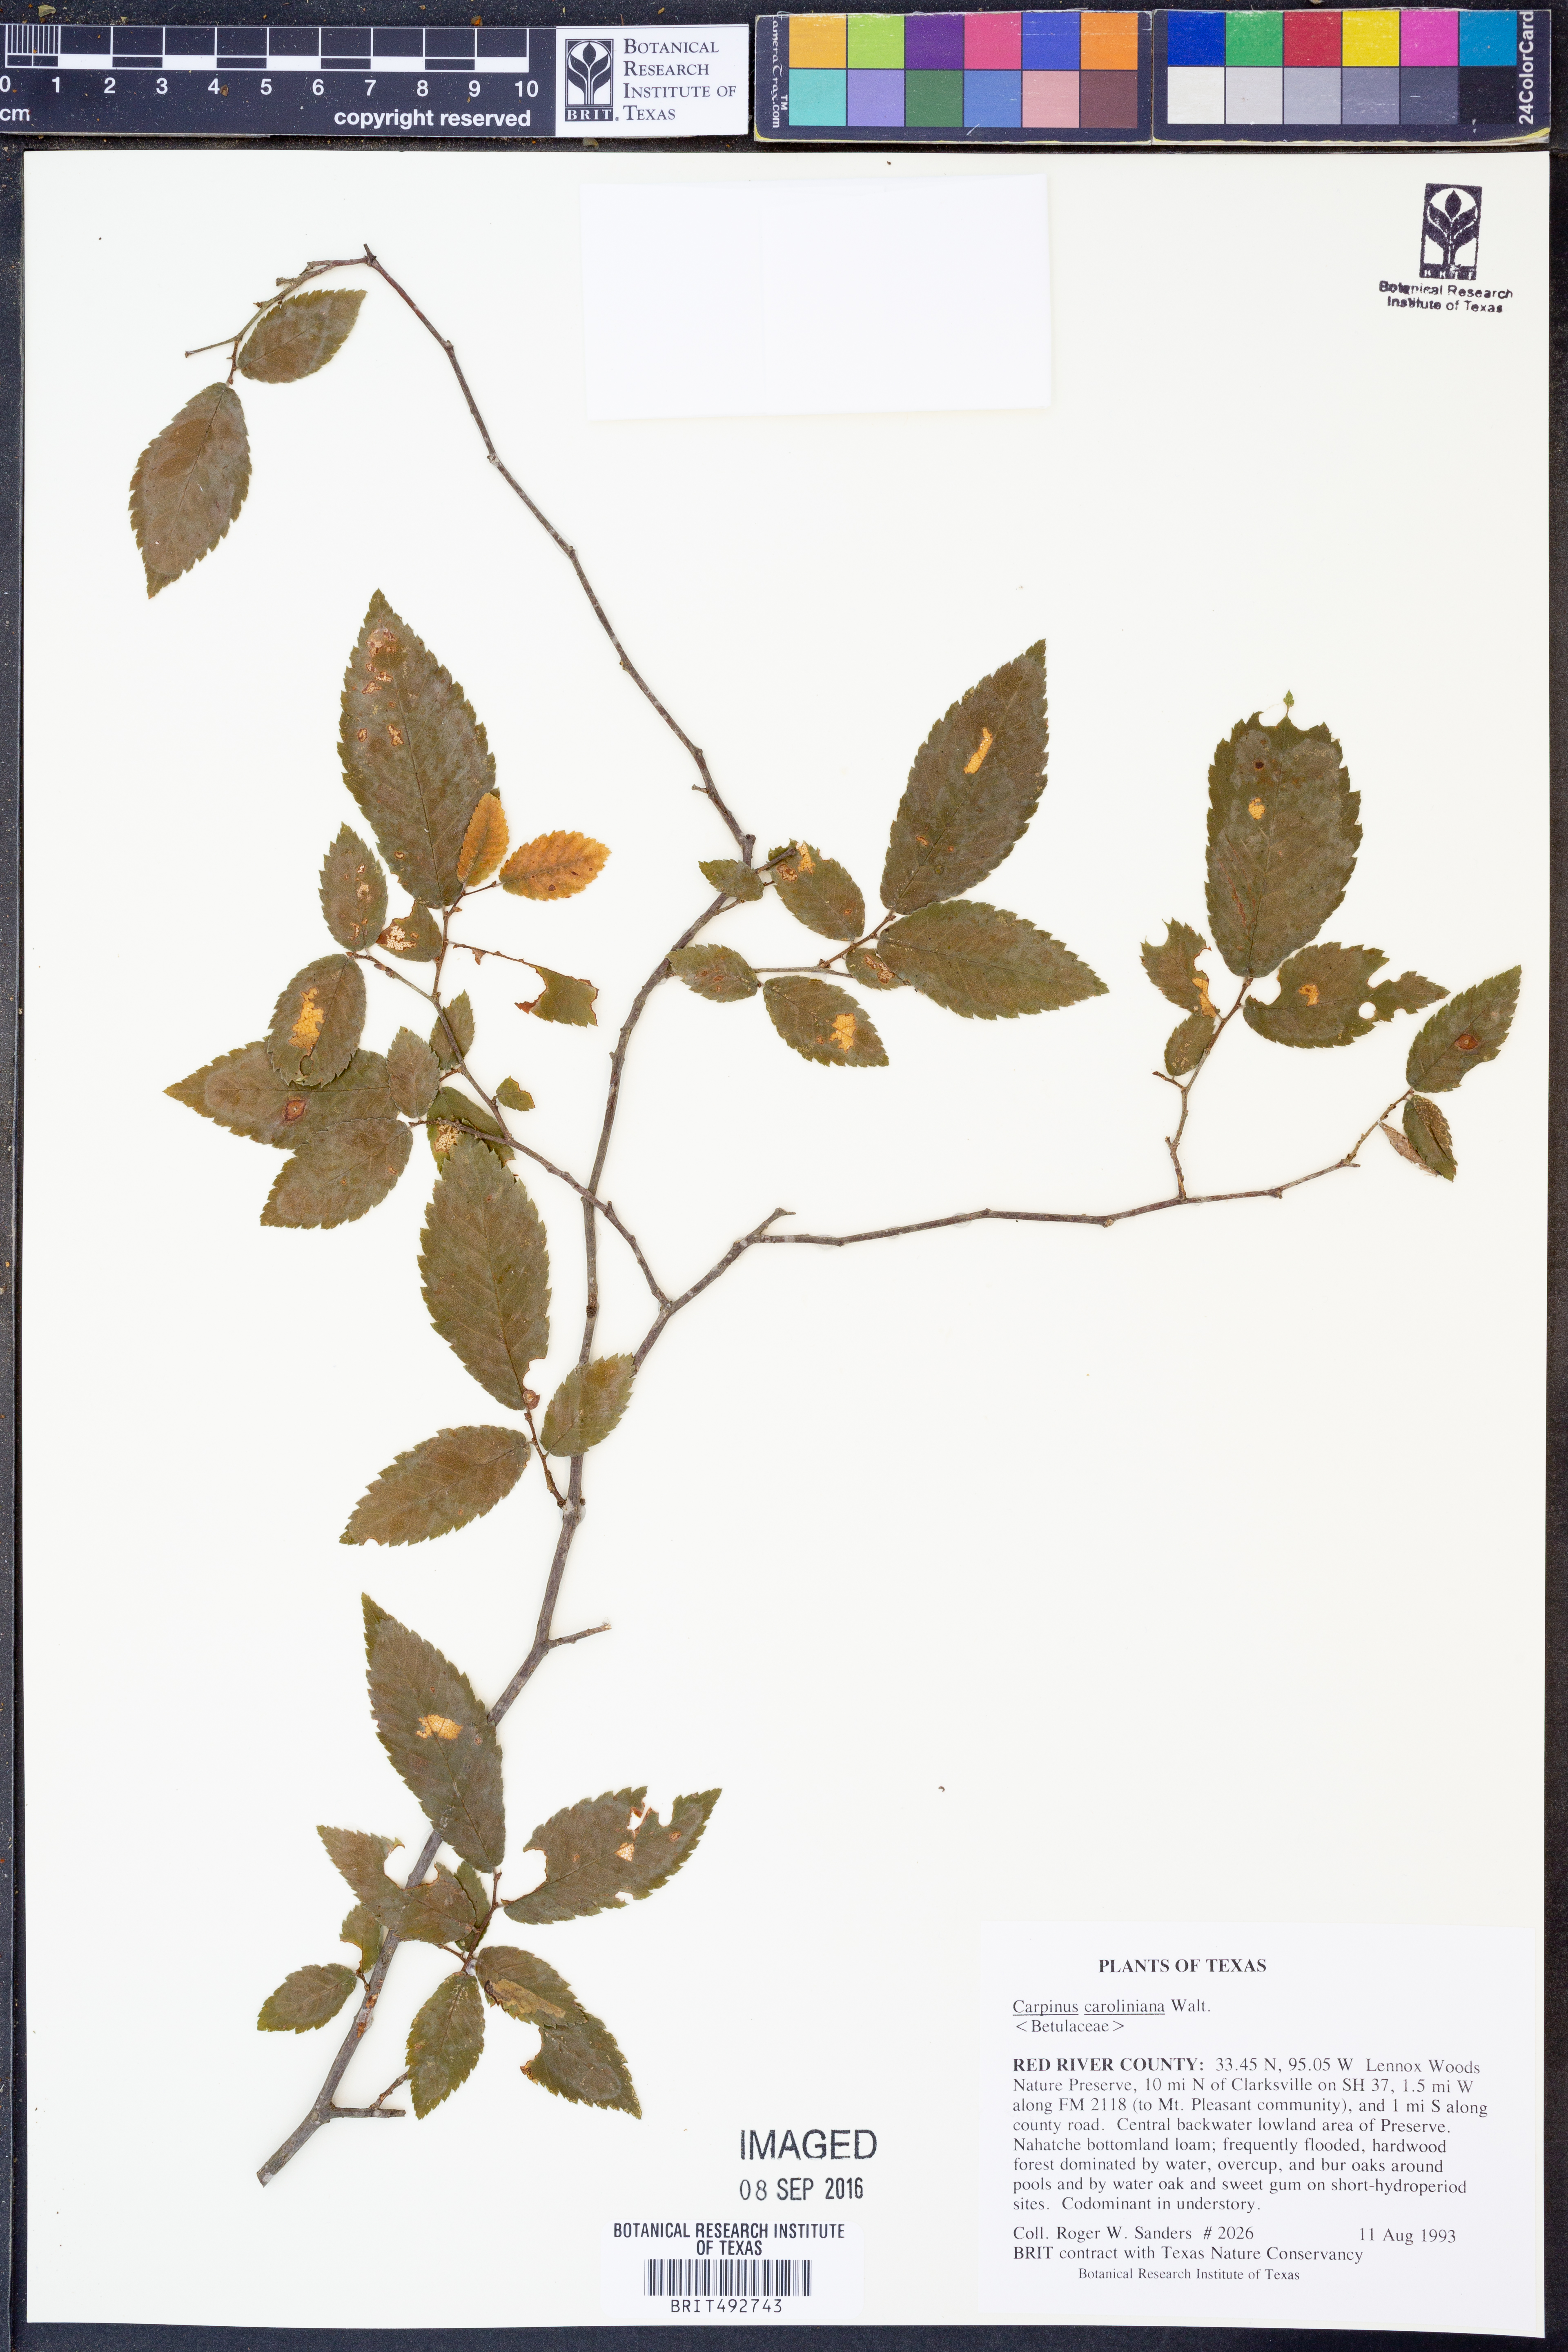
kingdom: Plantae
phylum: Tracheophyta
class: Magnoliopsida
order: Fagales
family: Betulaceae
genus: Carpinus
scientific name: Carpinus caroliniana
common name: American hornbeam
